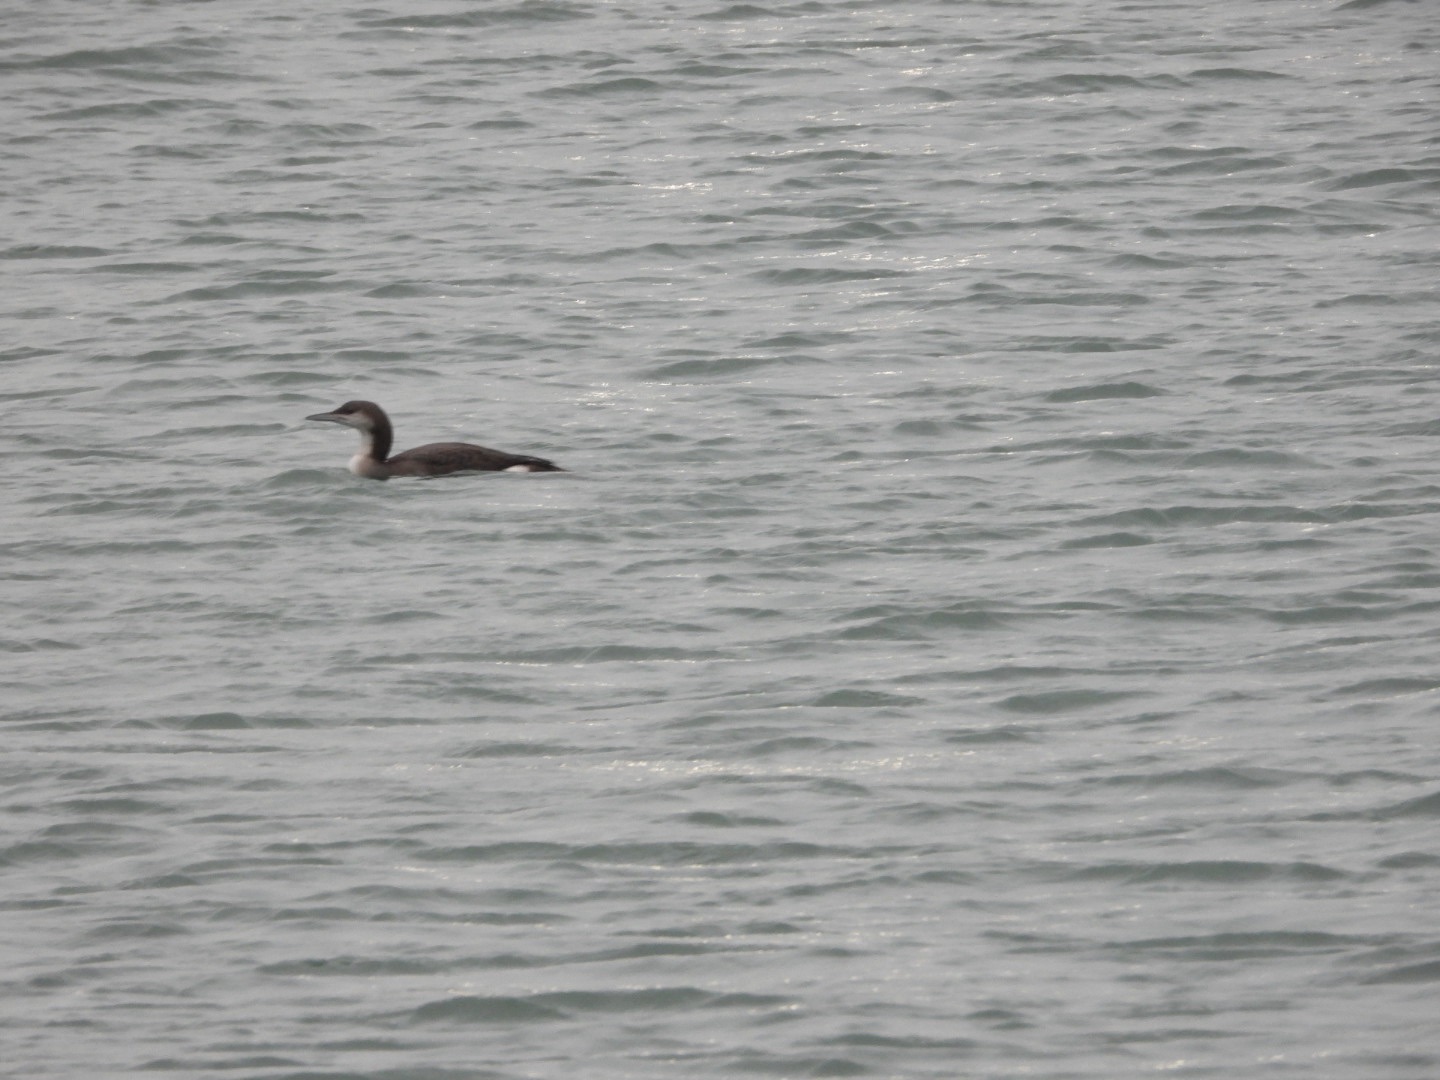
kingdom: Animalia
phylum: Chordata
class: Aves
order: Gaviiformes
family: Gaviidae
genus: Gavia
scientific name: Gavia arctica
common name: Sortstrubet lom
